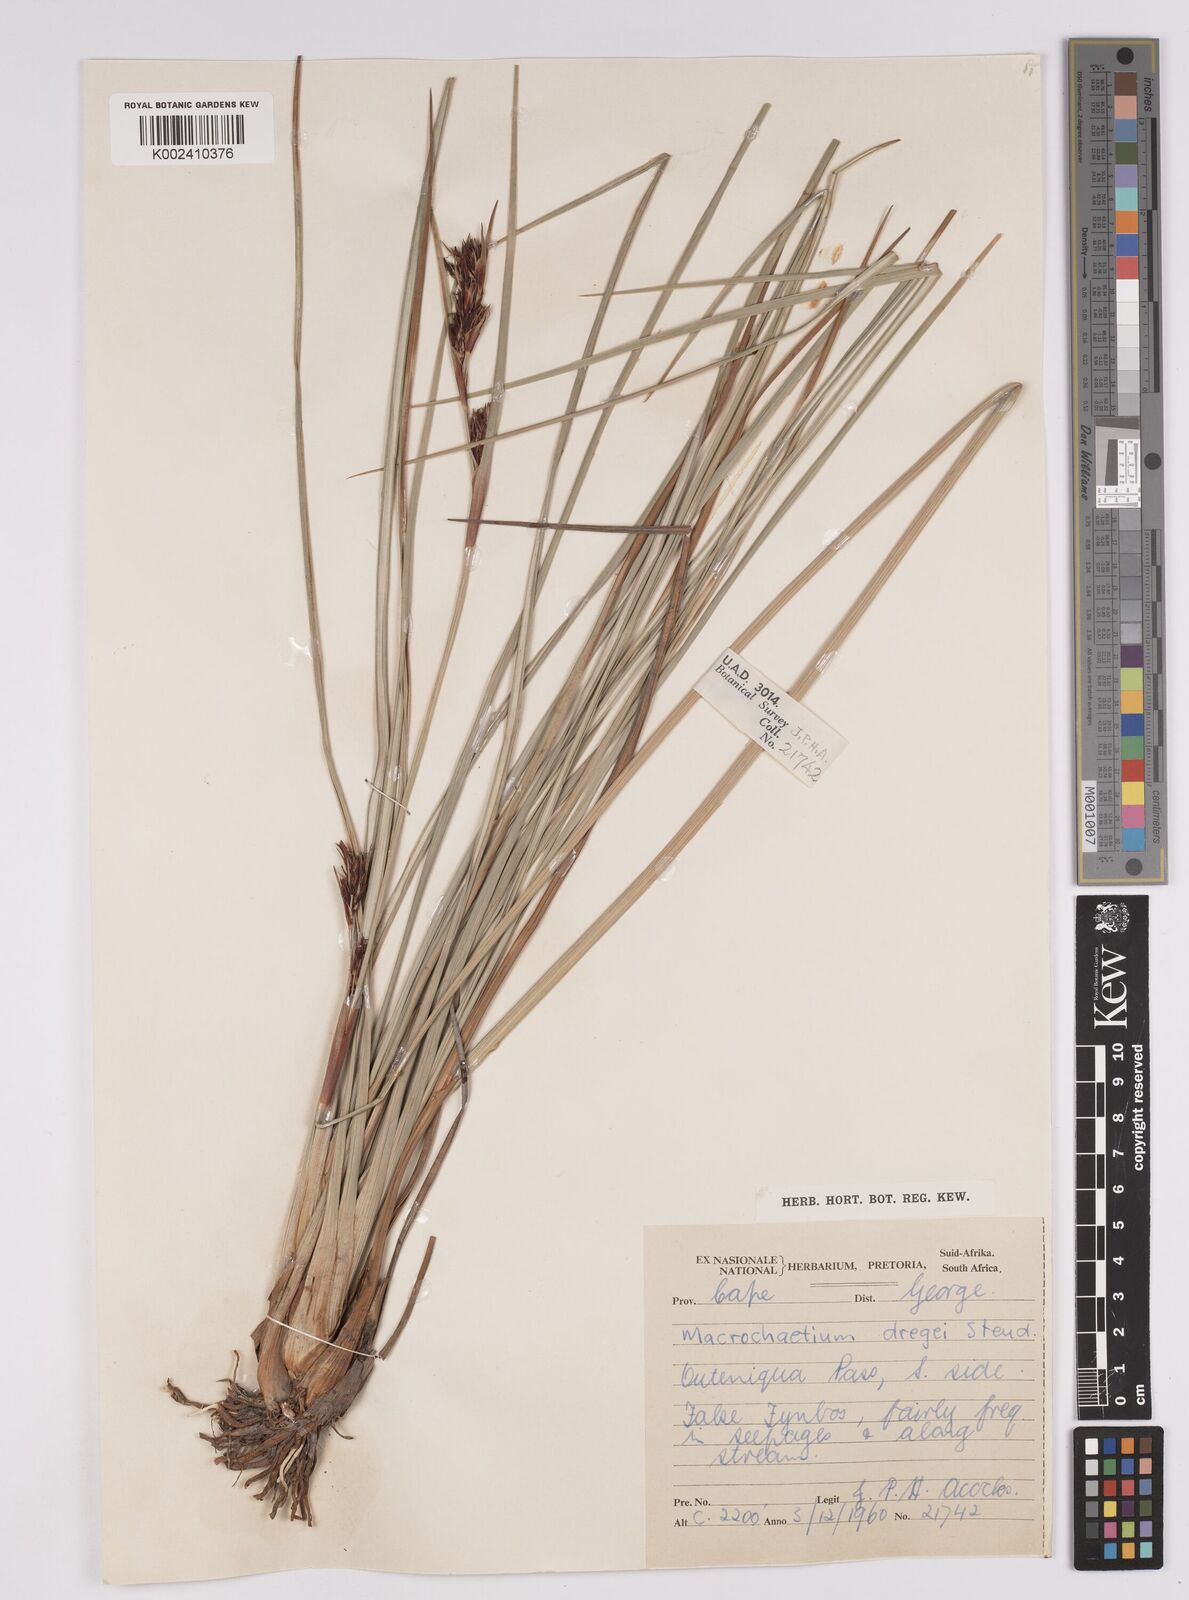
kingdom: Plantae
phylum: Tracheophyta
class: Liliopsida
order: Poales
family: Cyperaceae
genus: Cyathocoma
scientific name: Cyathocoma hexandra
